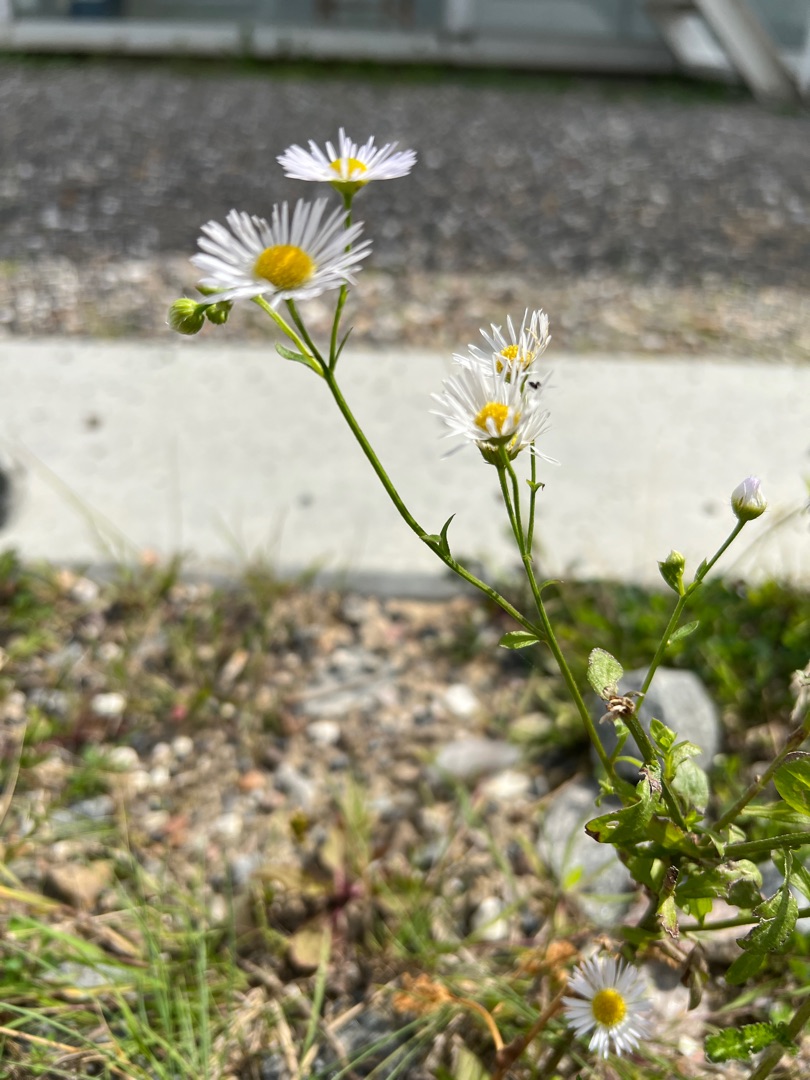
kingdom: Plantae
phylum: Tracheophyta
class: Magnoliopsida
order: Asterales
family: Asteraceae
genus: Erigeron
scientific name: Erigeron annuus
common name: Smalstråle
